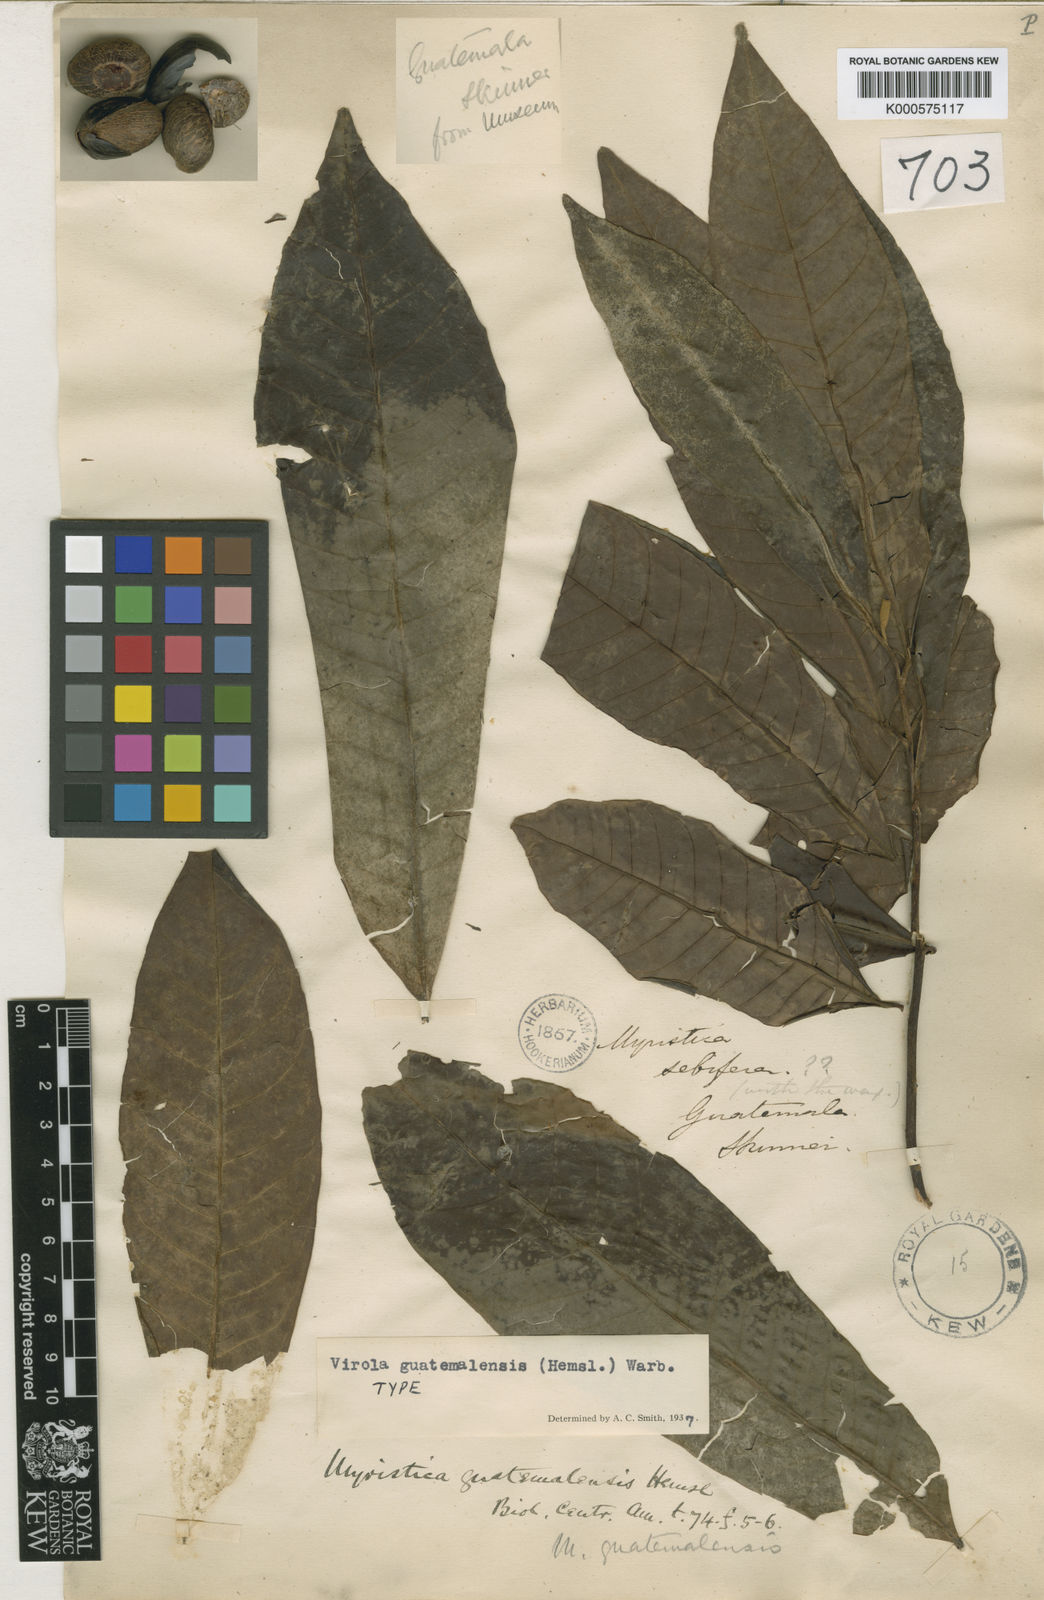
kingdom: Plantae
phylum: Tracheophyta
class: Magnoliopsida
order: Magnoliales
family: Myristicaceae
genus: Virola
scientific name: Virola guatemalensis
